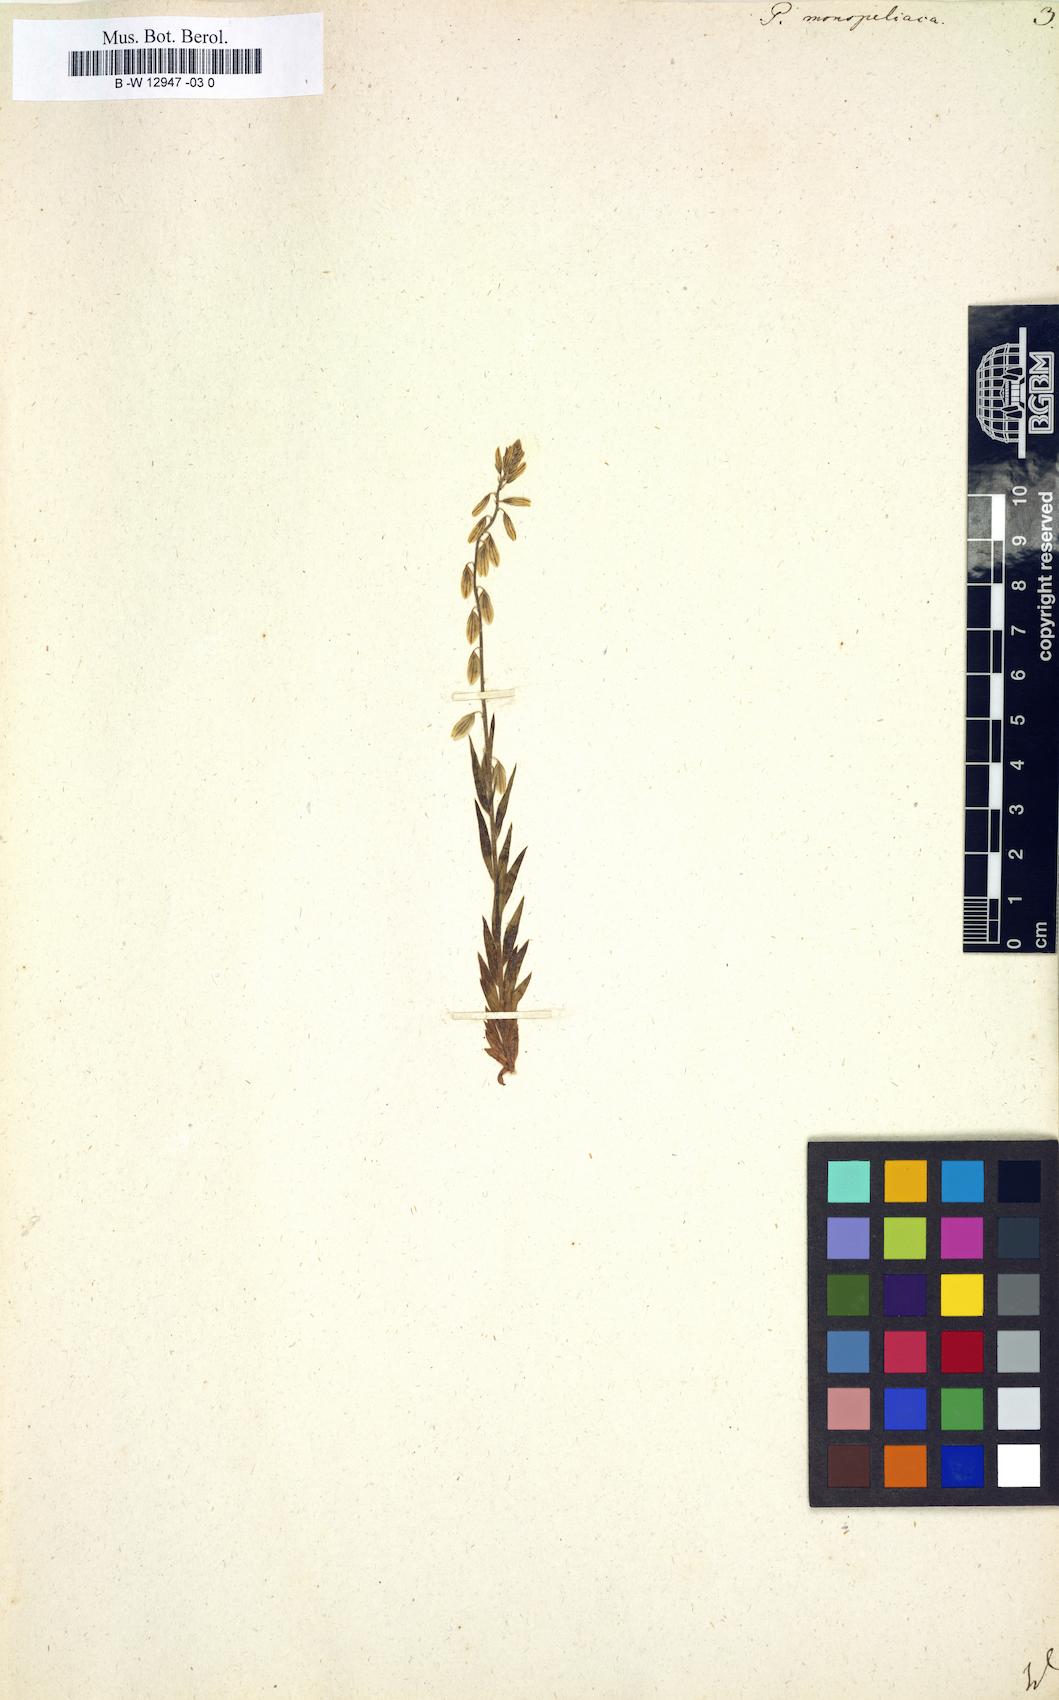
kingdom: Plantae
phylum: Tracheophyta
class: Magnoliopsida
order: Fabales
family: Polygalaceae
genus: Polygala
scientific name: Polygala monspeliaca
